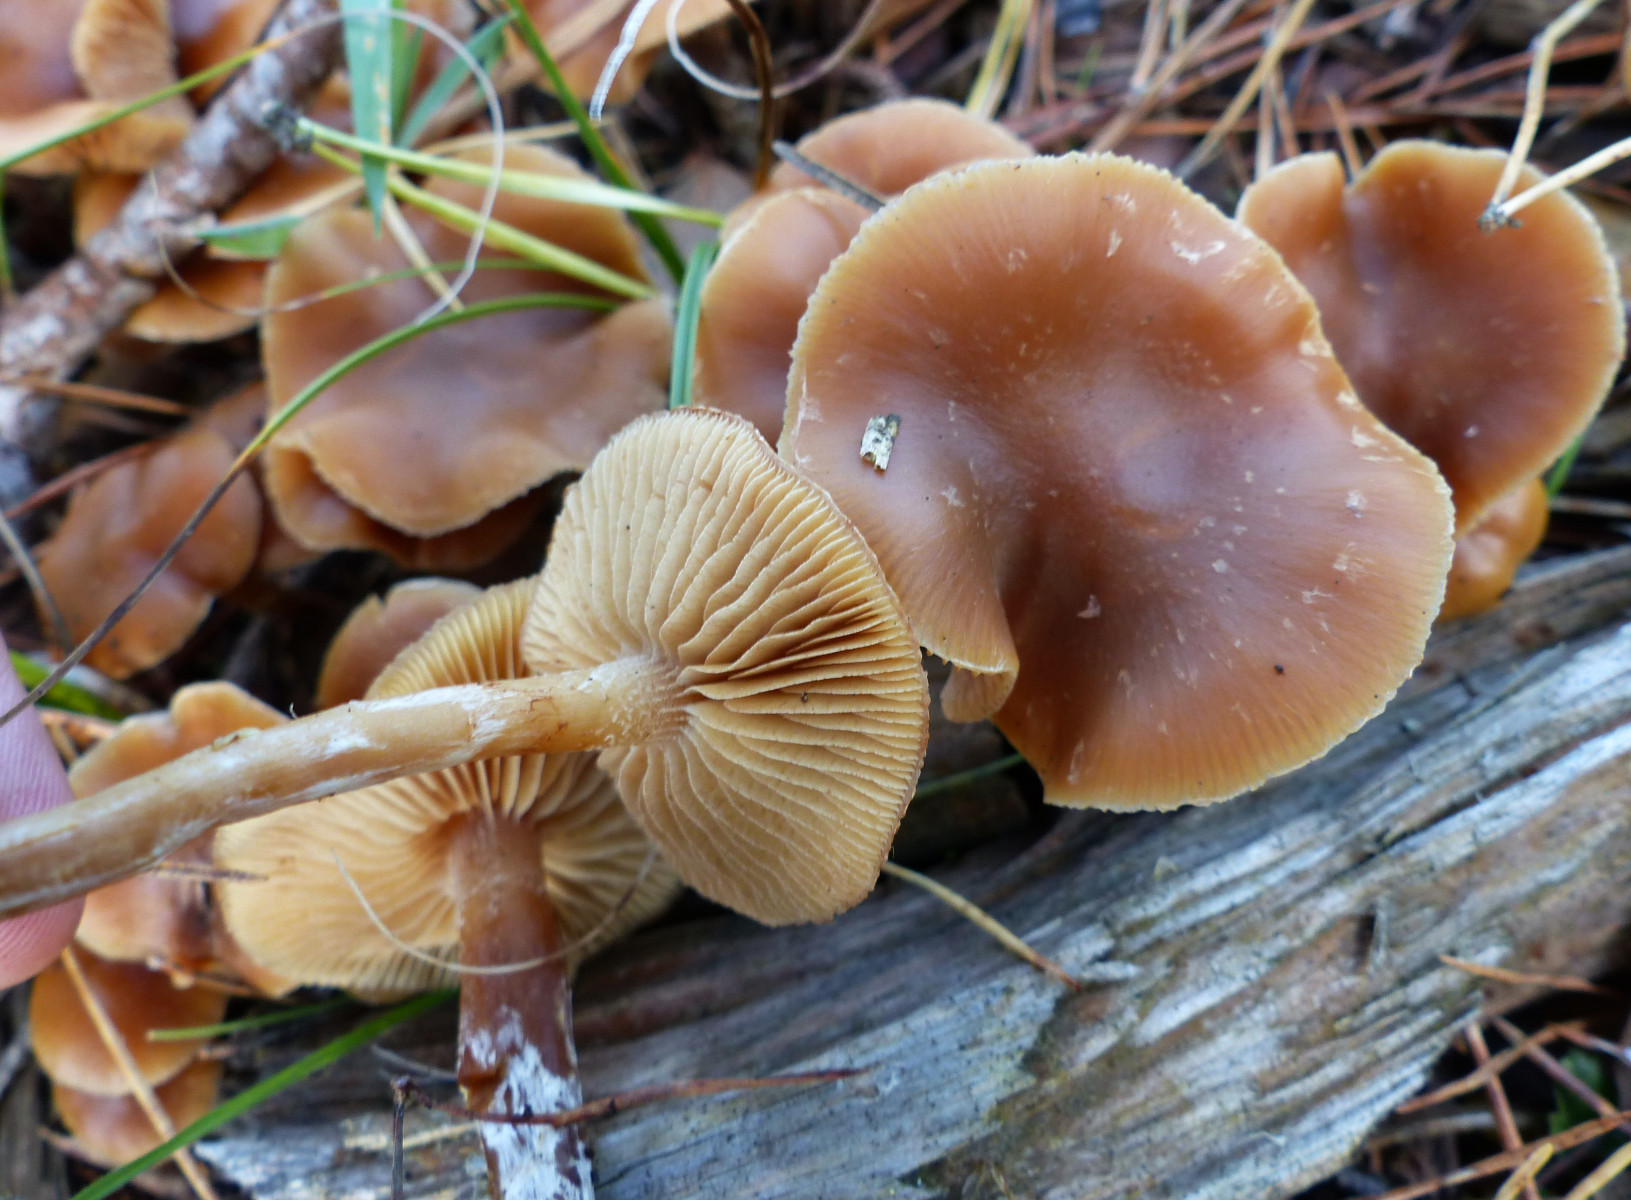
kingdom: Fungi
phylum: Basidiomycota
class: Agaricomycetes
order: Agaricales
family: Hymenogastraceae
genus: Galerina
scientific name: Galerina sideroides
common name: træflis-hjelmhat
